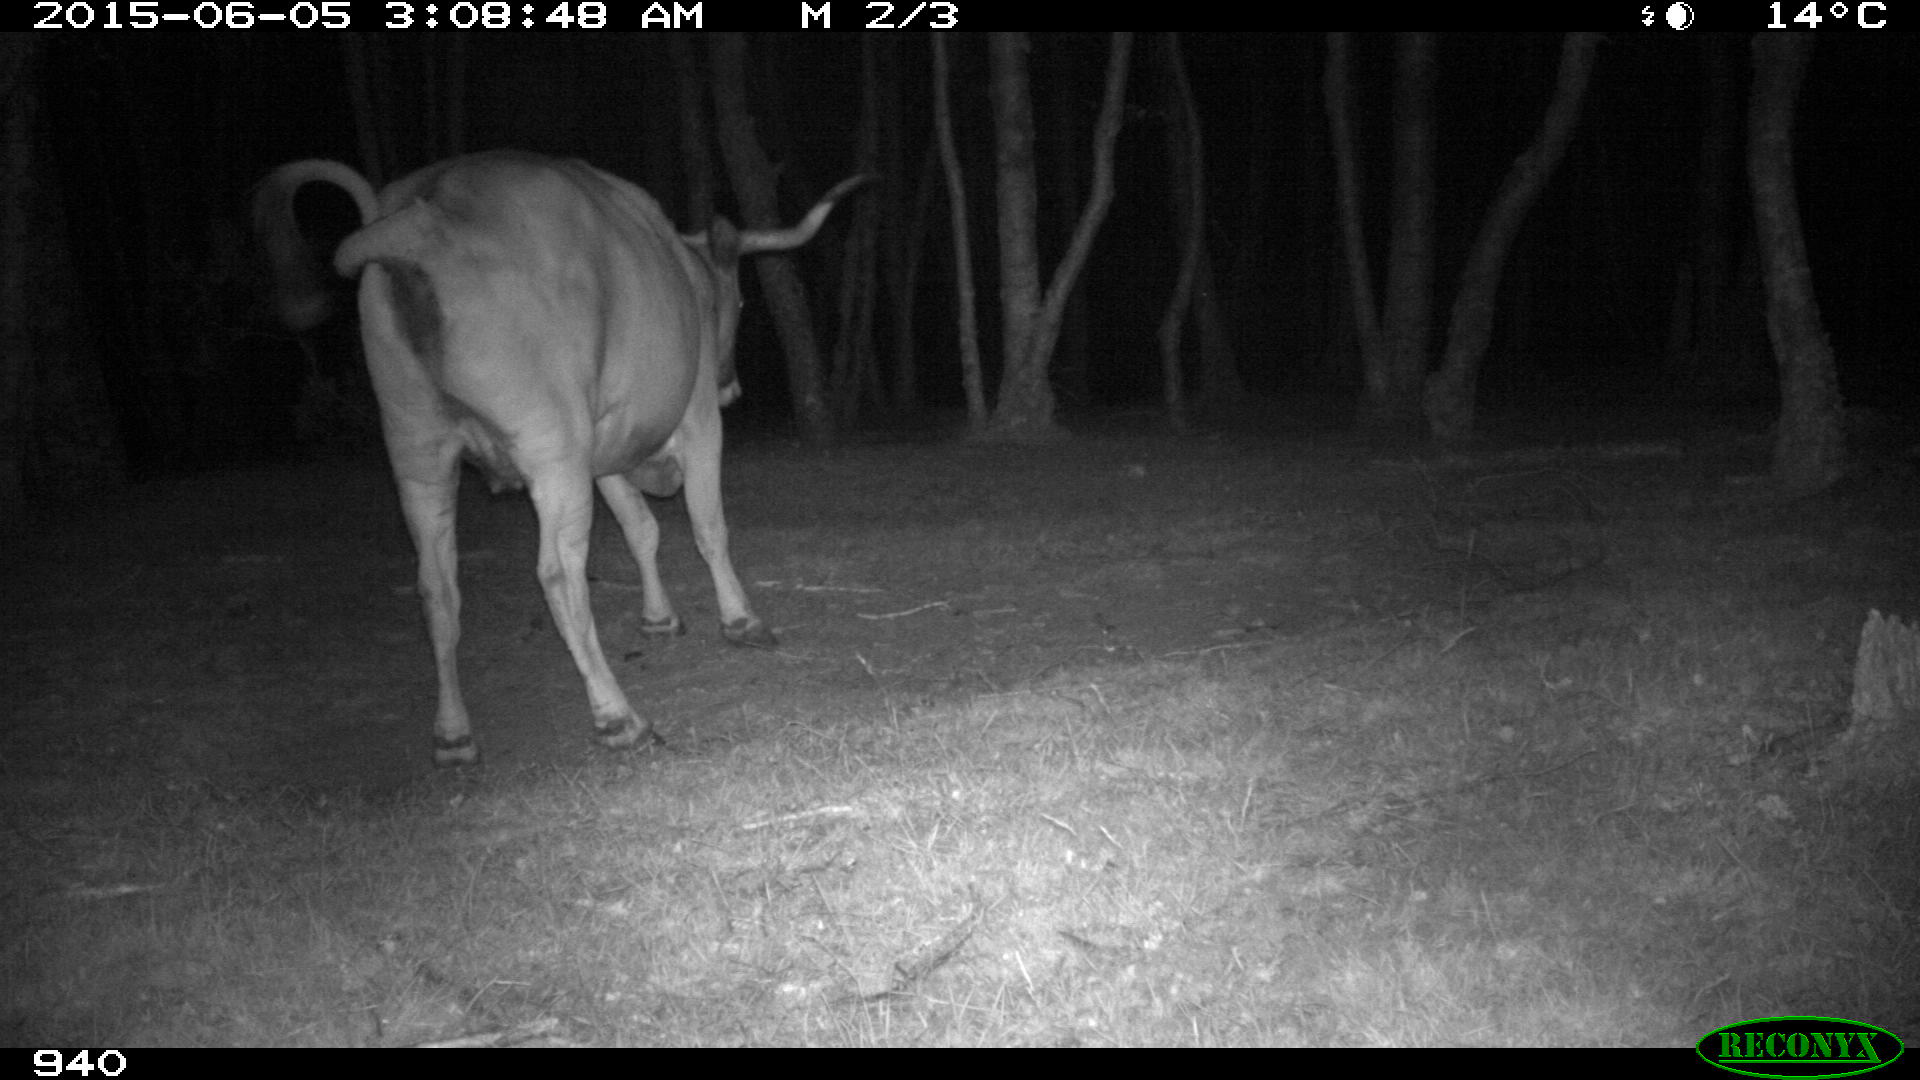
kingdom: Animalia
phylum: Chordata
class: Mammalia
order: Artiodactyla
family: Bovidae
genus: Bos
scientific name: Bos taurus
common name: Domesticated cattle
